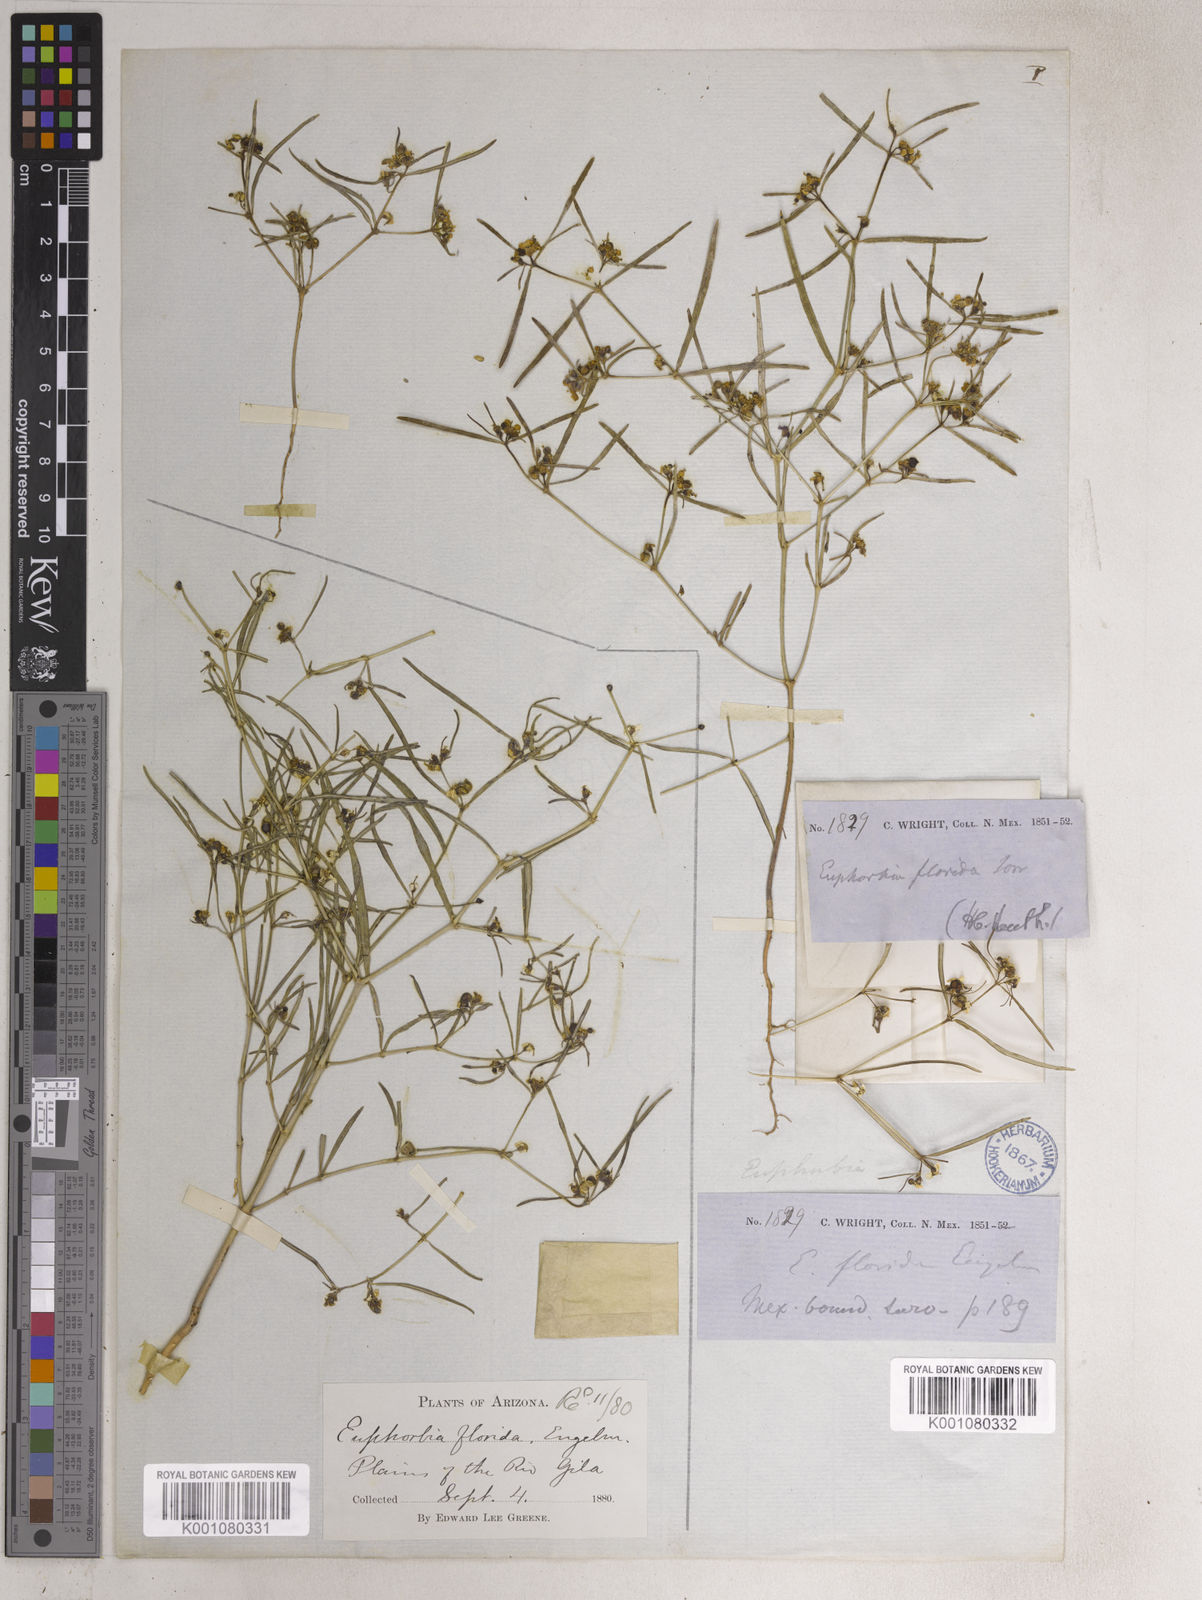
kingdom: Plantae
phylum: Tracheophyta
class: Magnoliopsida
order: Malpighiales
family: Euphorbiaceae
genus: Euphorbia
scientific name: Euphorbia florida
